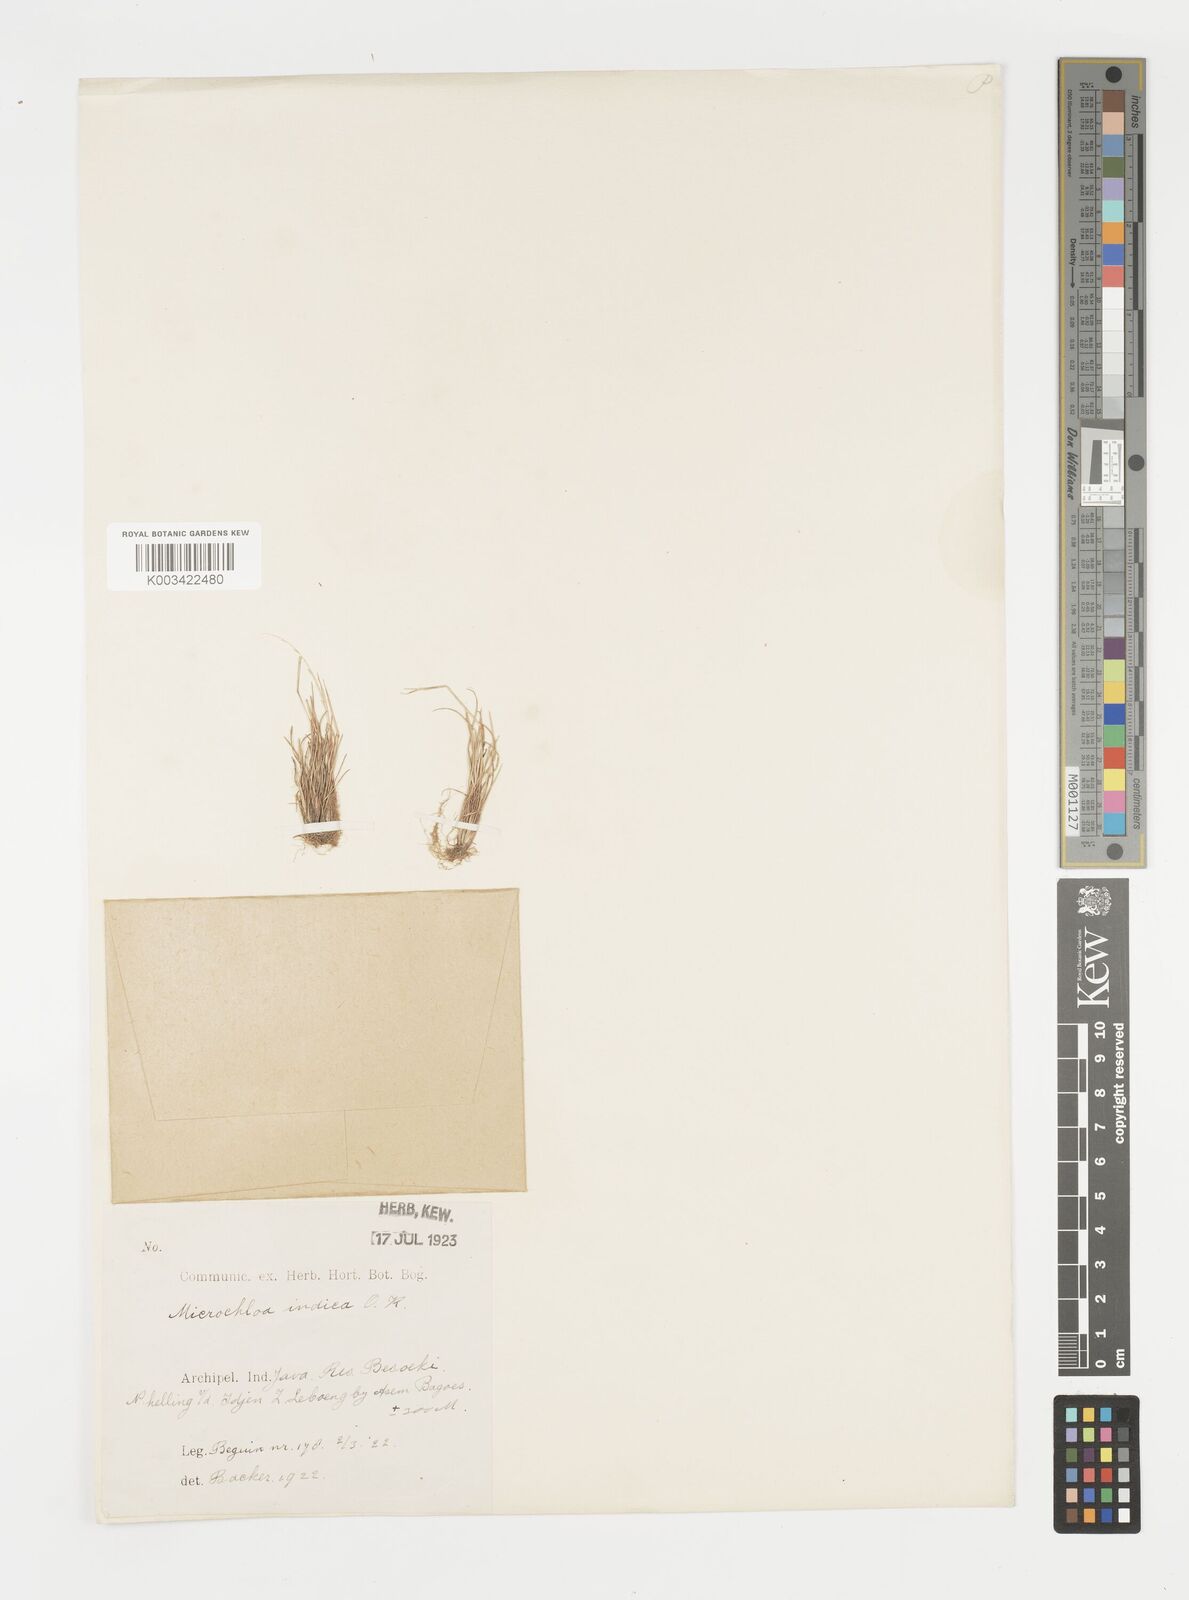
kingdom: Plantae
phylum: Tracheophyta
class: Liliopsida
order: Poales
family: Poaceae
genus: Microchloa
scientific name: Microchloa indica
